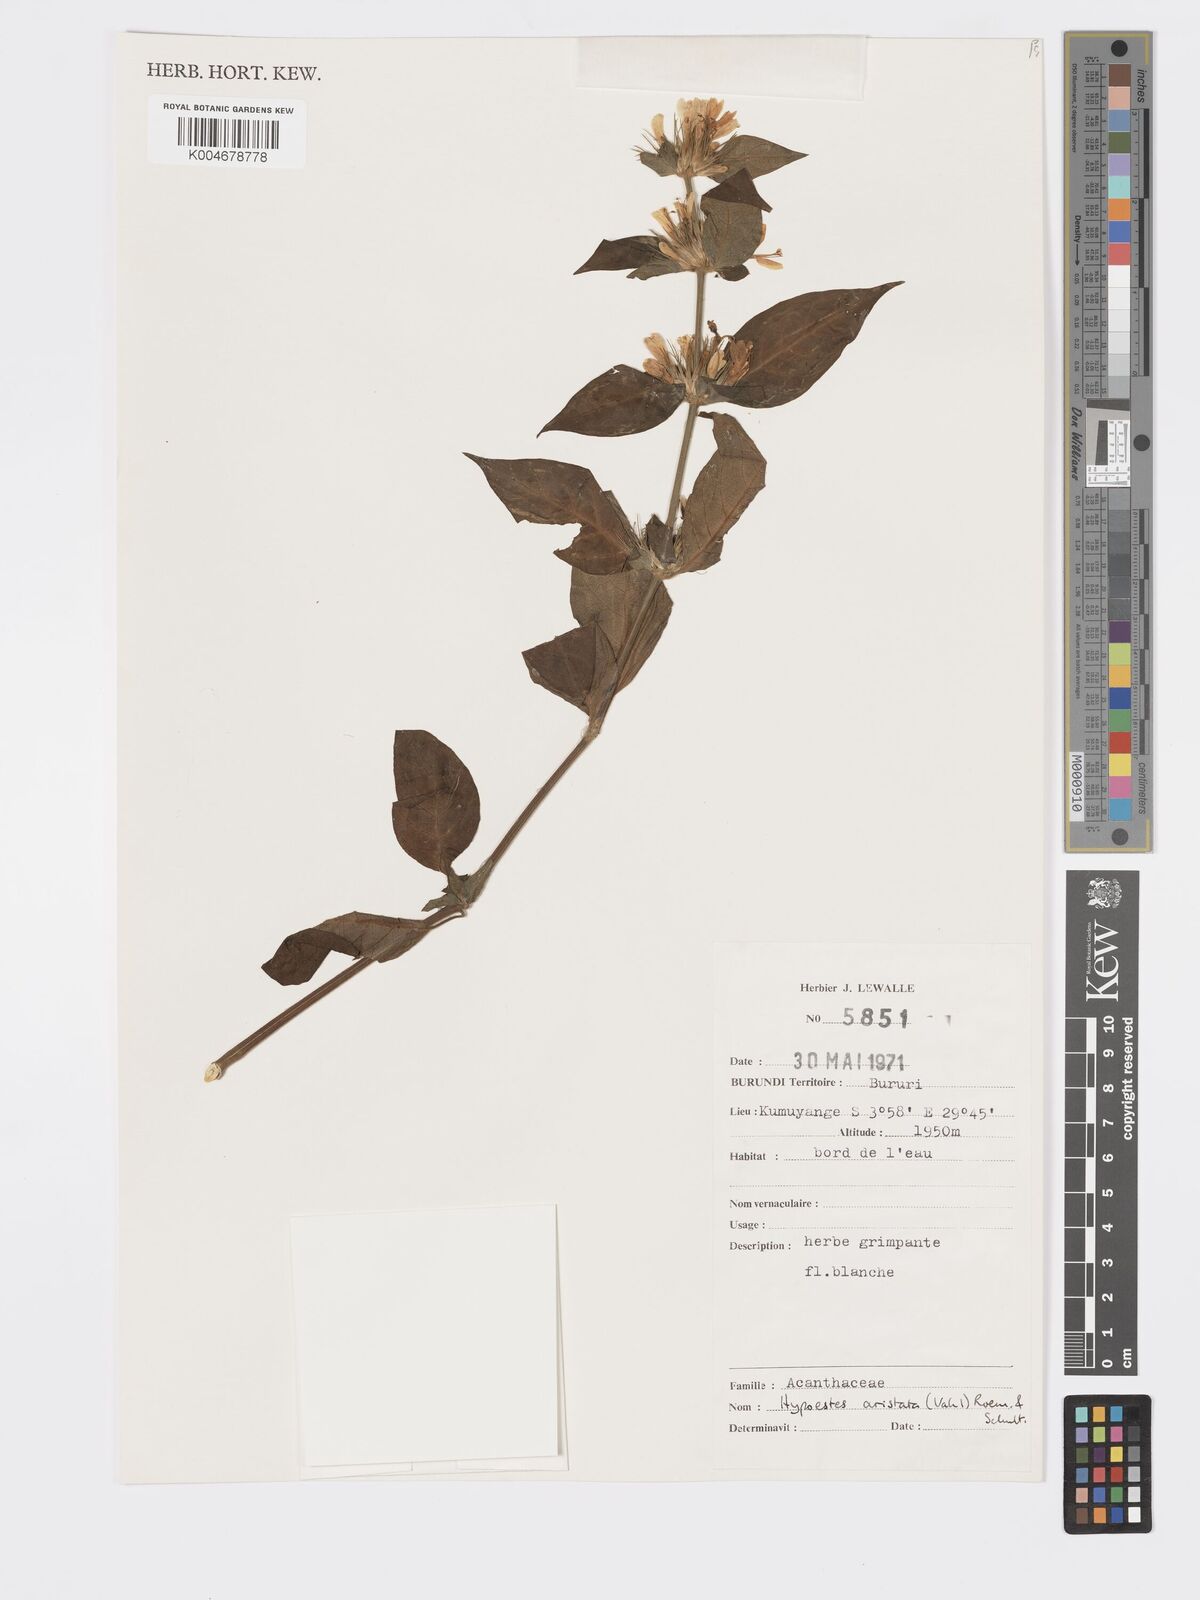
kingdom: Plantae
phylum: Tracheophyta
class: Magnoliopsida
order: Lamiales
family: Acanthaceae
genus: Hypoestes
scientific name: Hypoestes aristata
